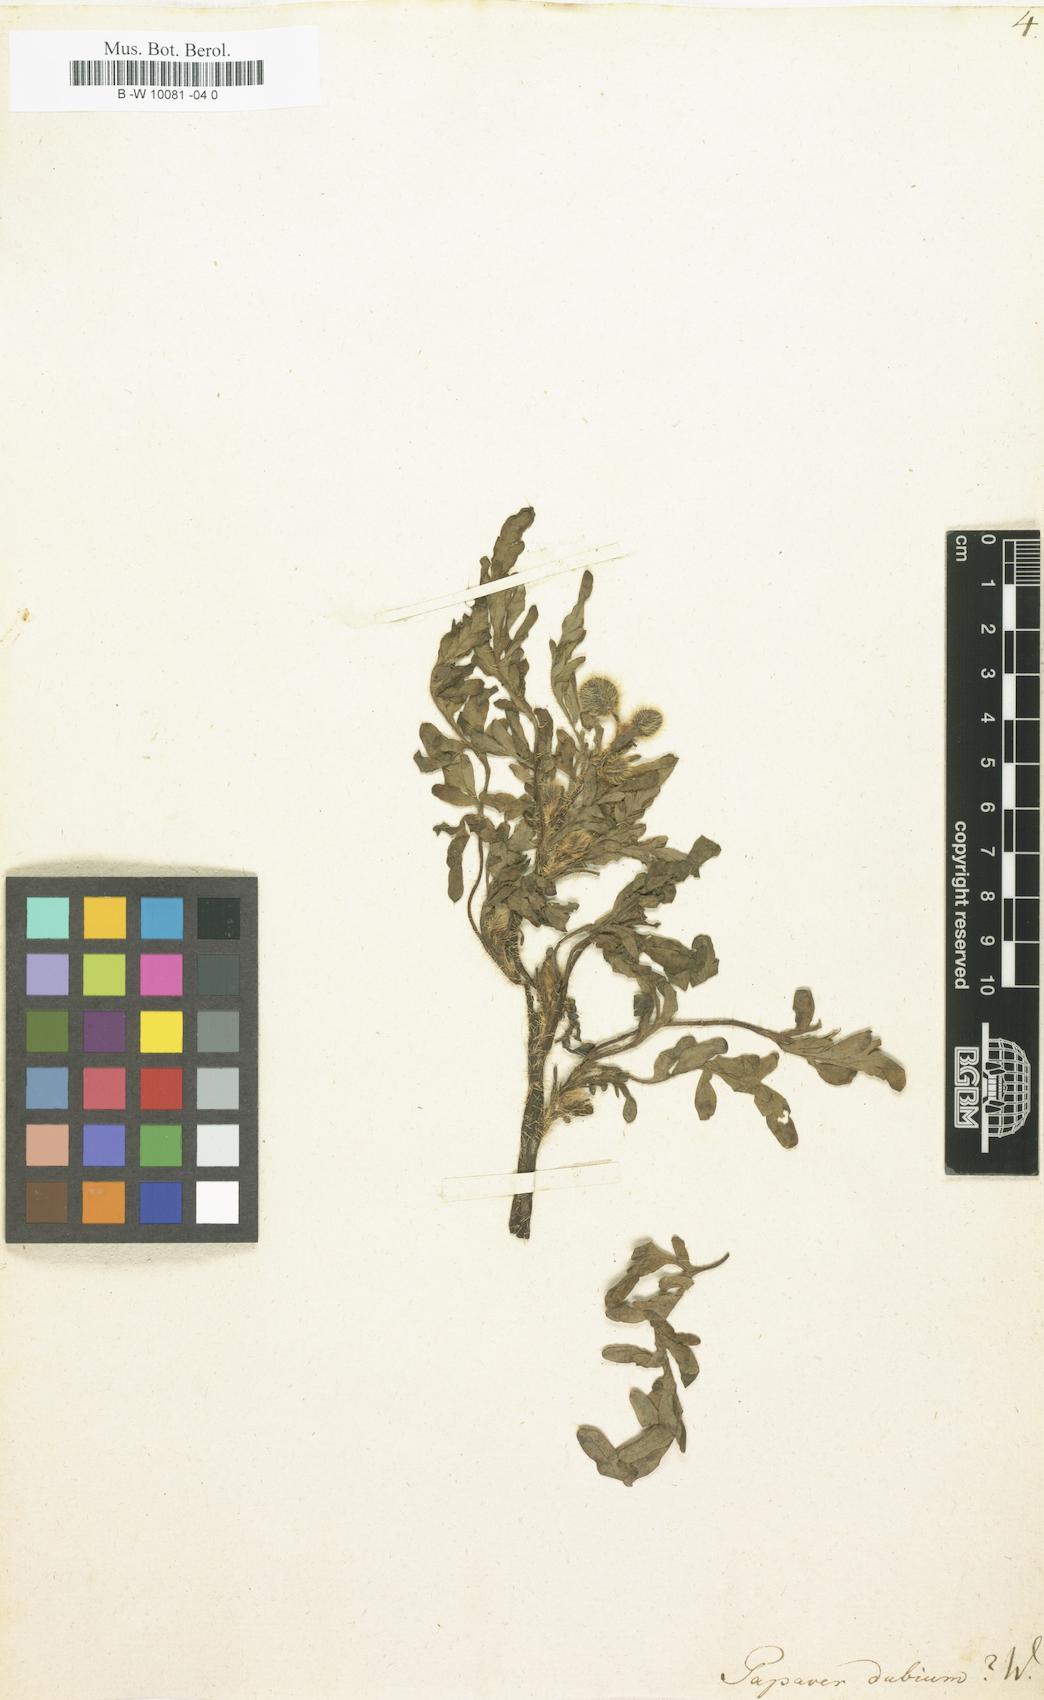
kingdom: Plantae
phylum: Tracheophyta
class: Magnoliopsida
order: Ranunculales
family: Papaveraceae
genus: Papaver
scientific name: Papaver dubium
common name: Long-headed poppy
